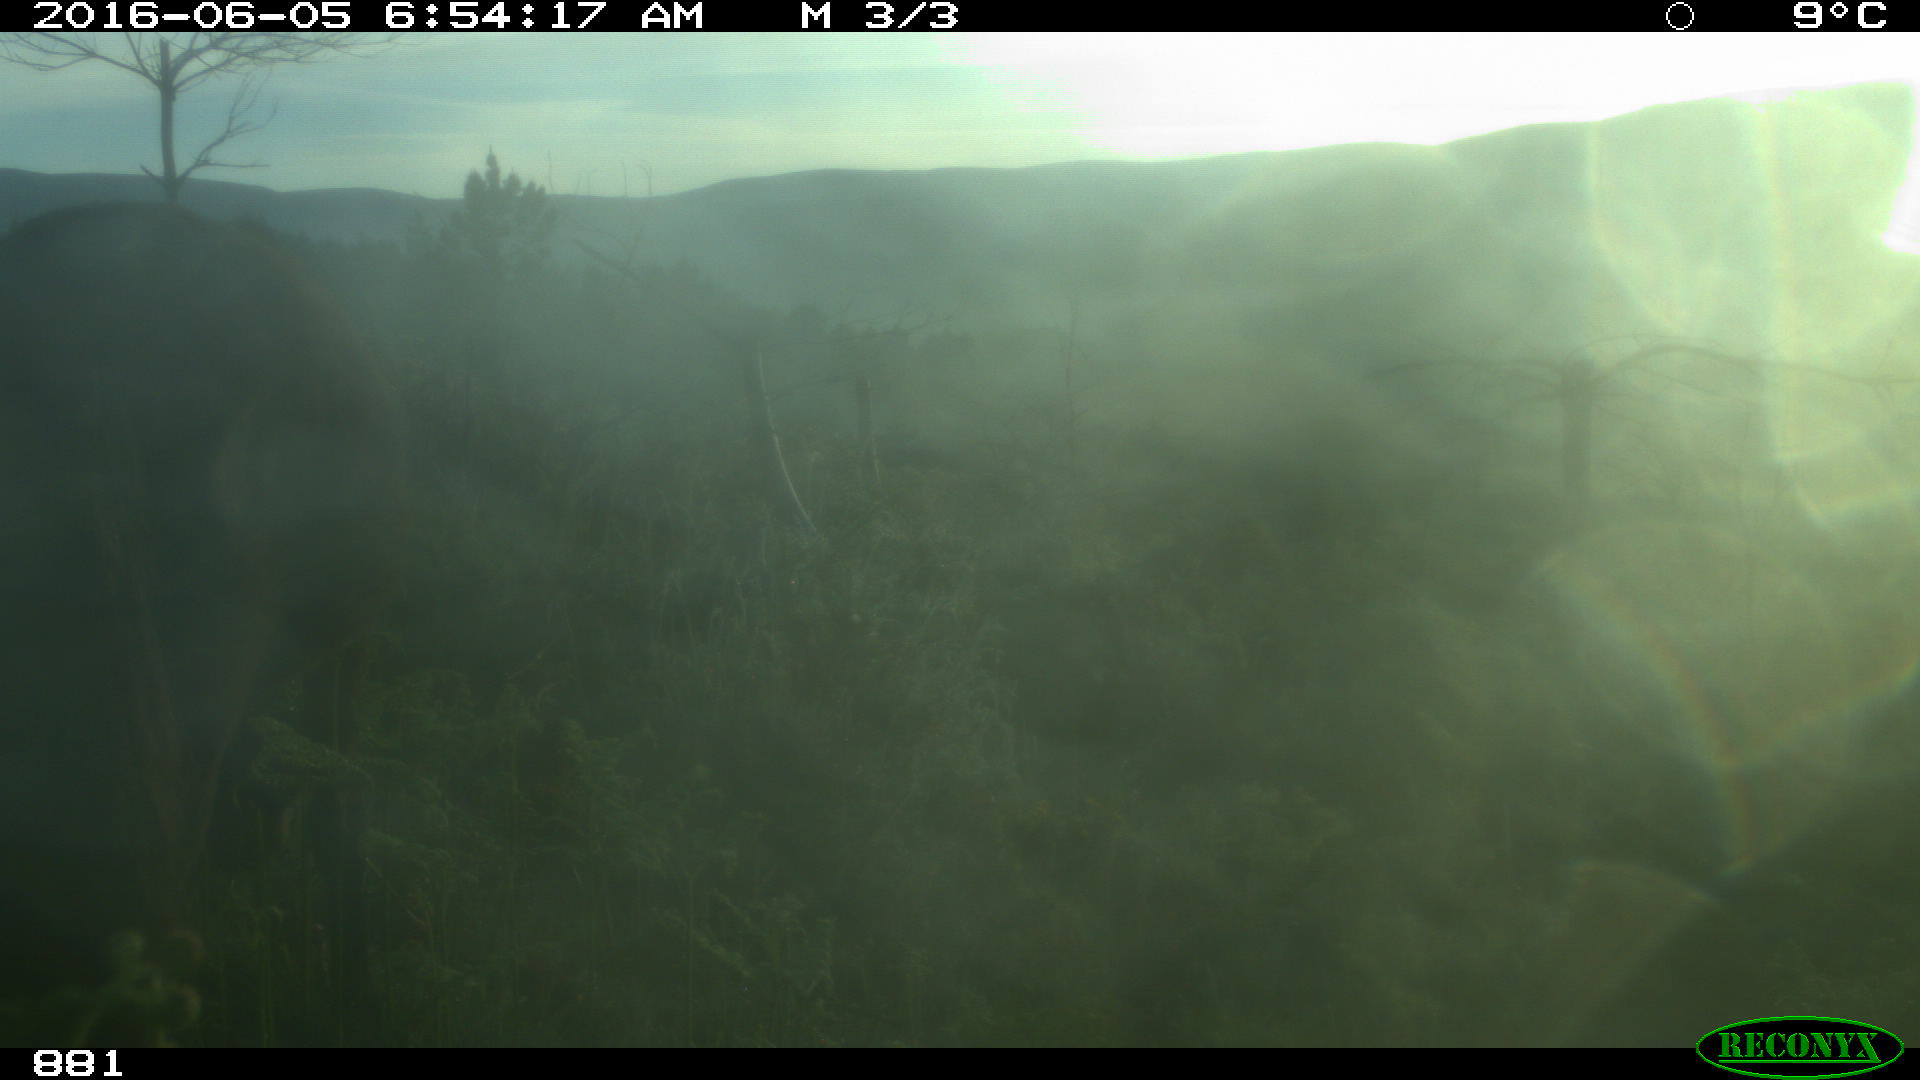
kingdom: Animalia
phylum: Chordata
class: Mammalia
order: Perissodactyla
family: Equidae
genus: Equus
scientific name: Equus caballus
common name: Horse
